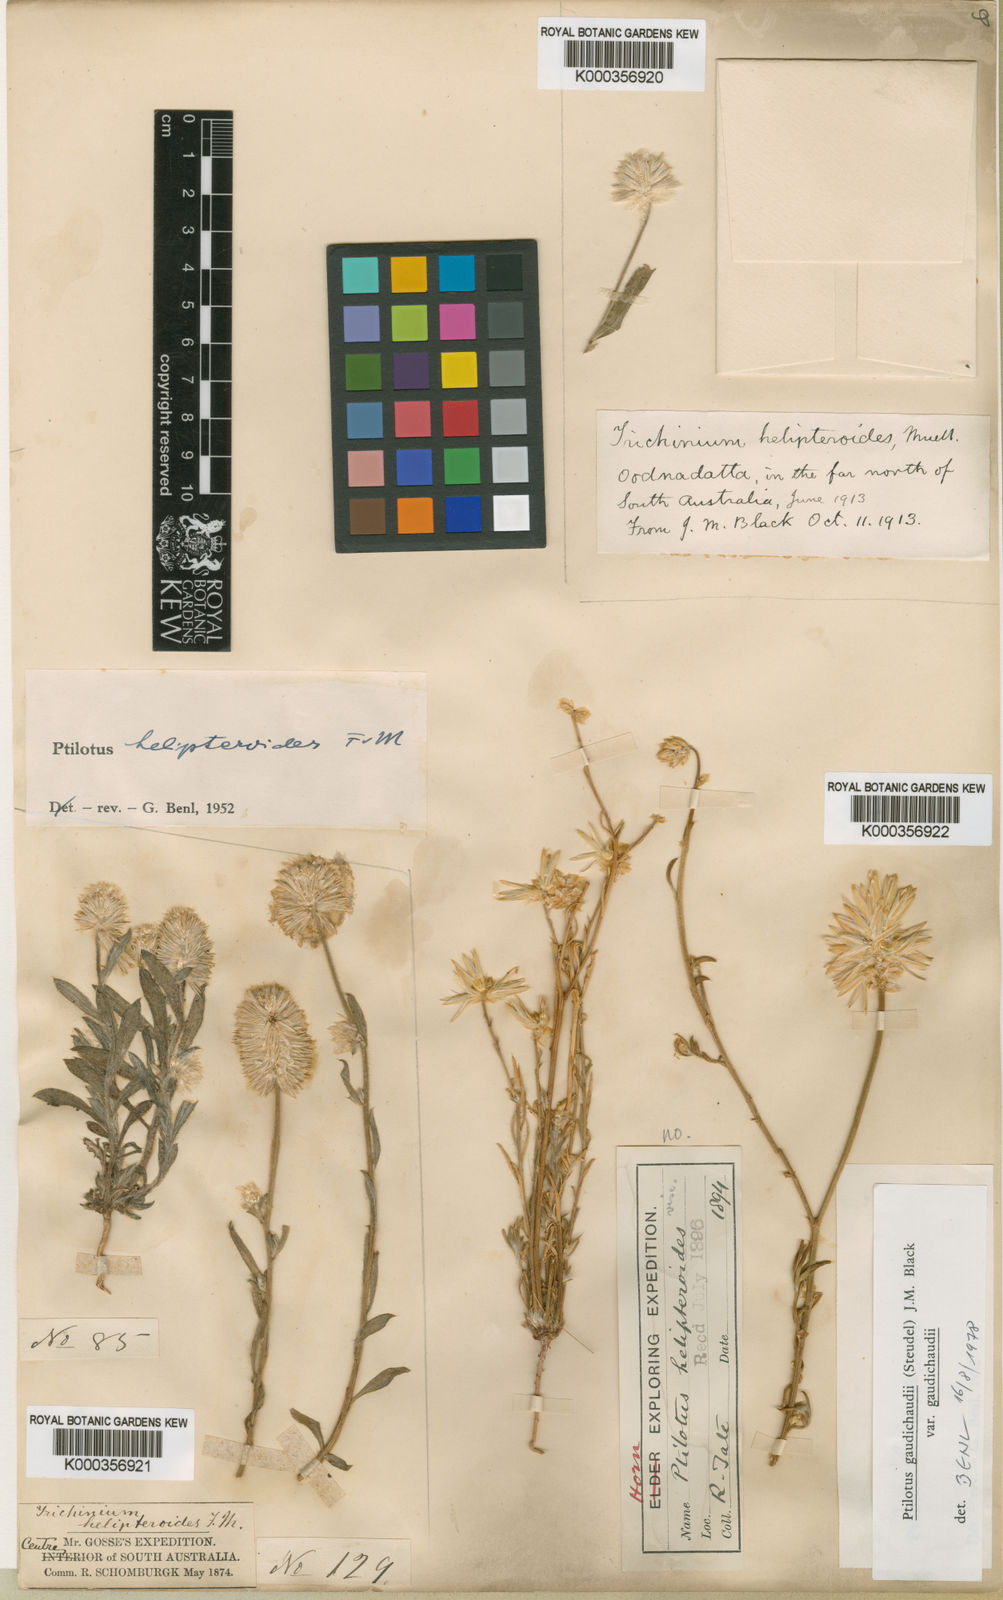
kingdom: Plantae
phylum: Tracheophyta
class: Magnoliopsida
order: Caryophyllales
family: Amaranthaceae
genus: Ptilotus
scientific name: Ptilotus
